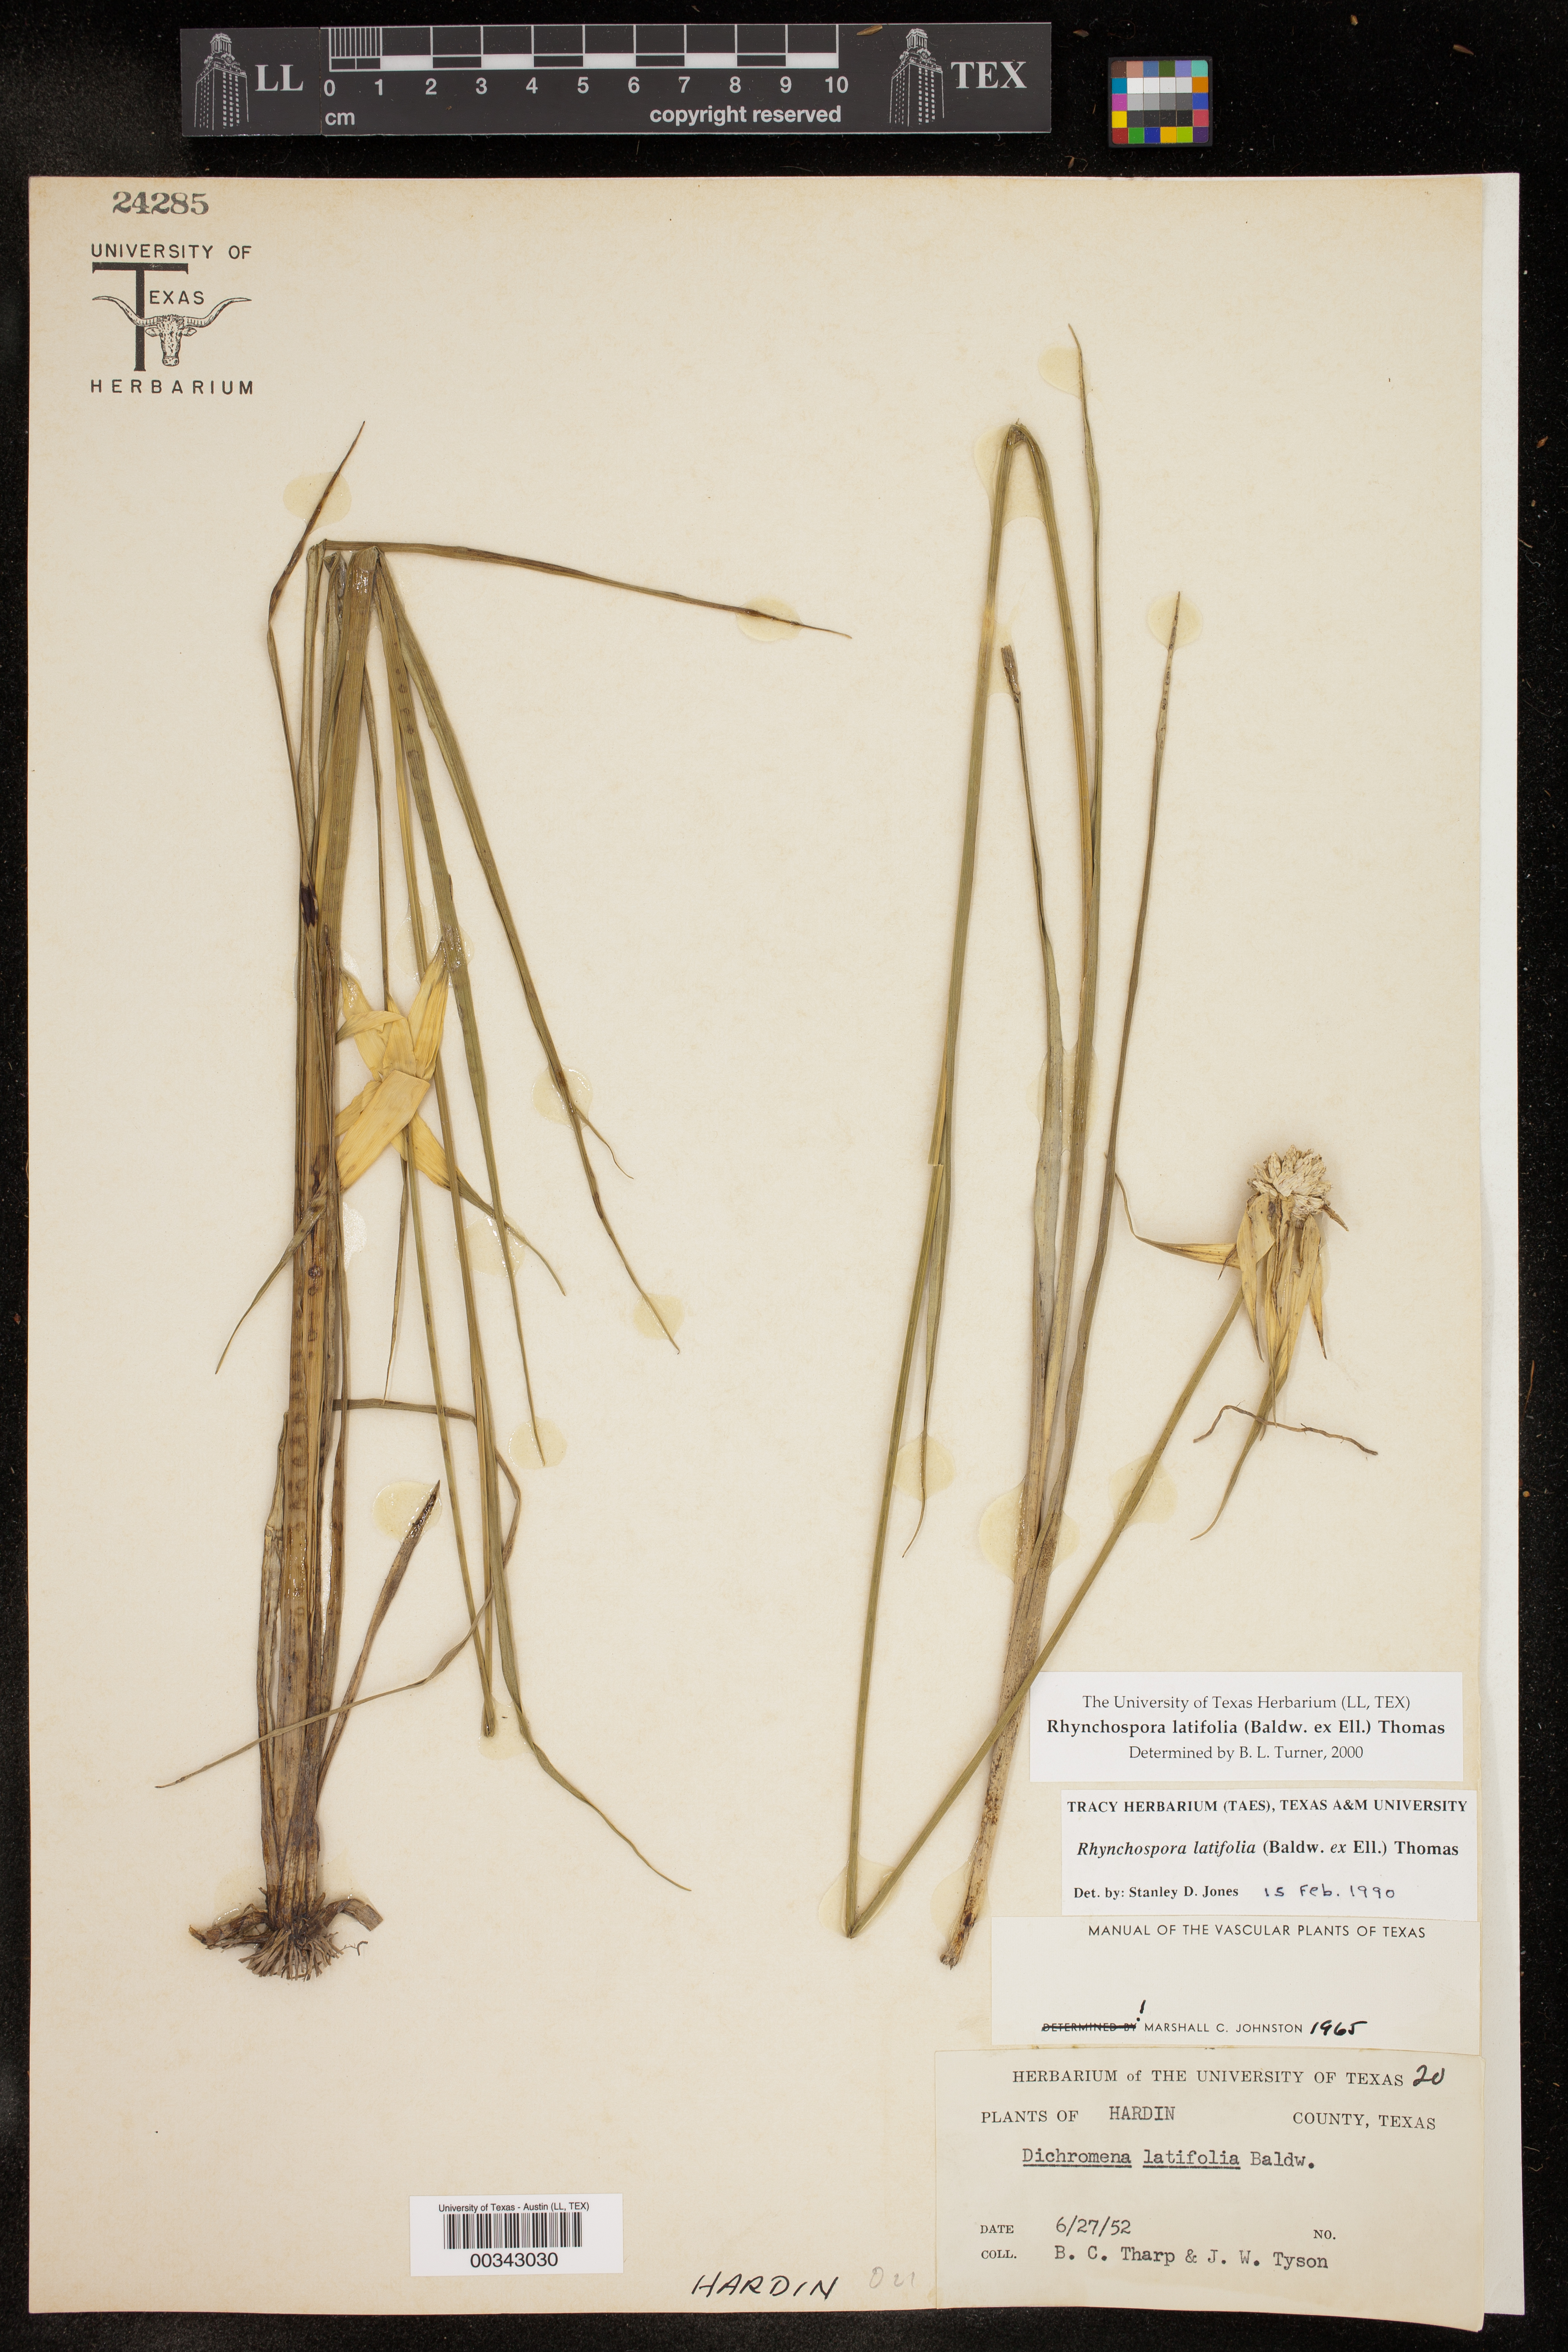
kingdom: Plantae
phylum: Tracheophyta
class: Liliopsida
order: Poales
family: Cyperaceae
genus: Rhynchospora
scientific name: Rhynchospora latifolia
